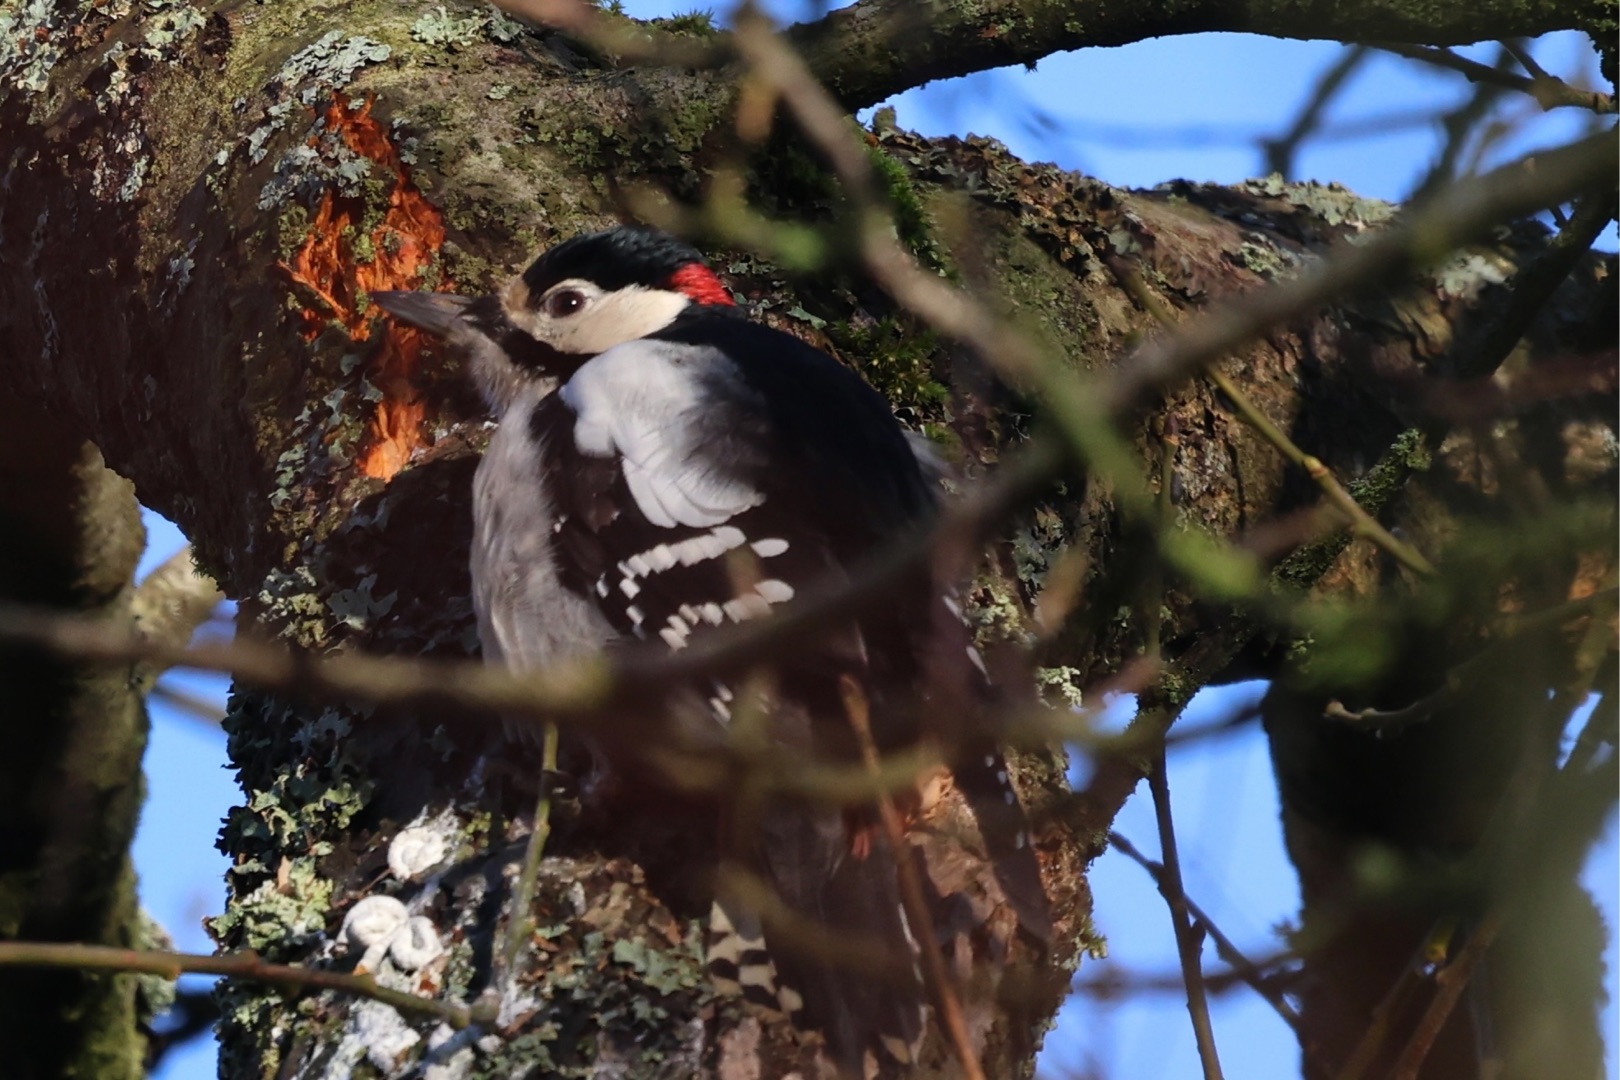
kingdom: Animalia
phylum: Chordata
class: Aves
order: Piciformes
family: Picidae
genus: Dendrocopos
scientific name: Dendrocopos major
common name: Stor flagspætte
